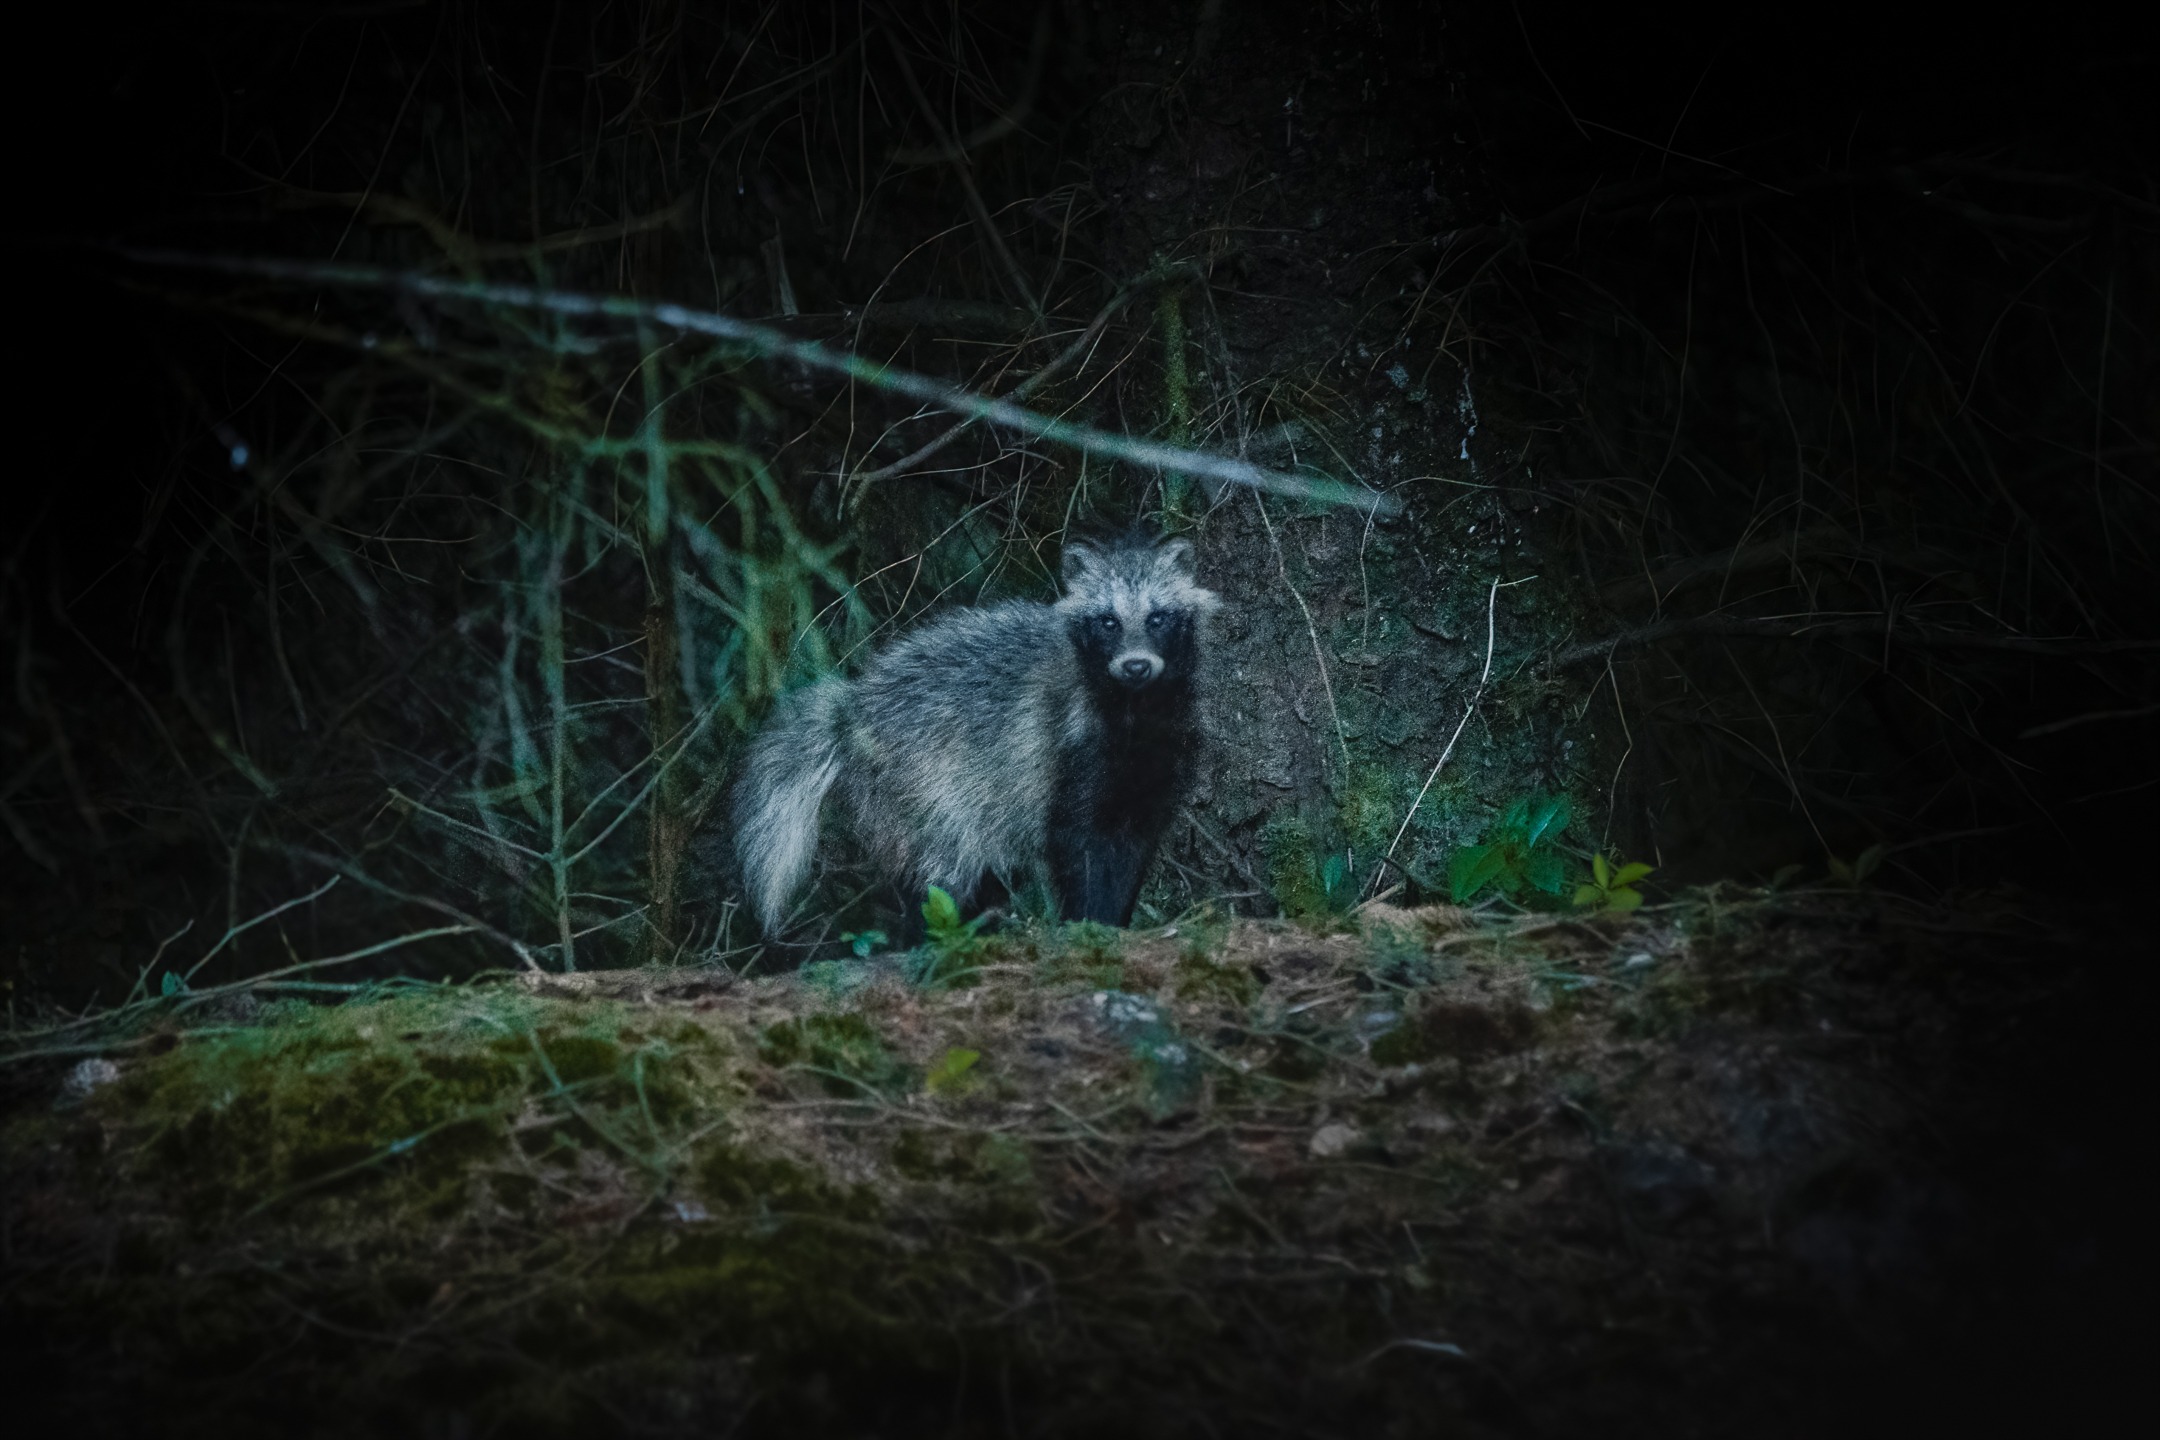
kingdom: Animalia
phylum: Chordata
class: Mammalia
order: Carnivora
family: Canidae
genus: Nyctereutes
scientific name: Nyctereutes procyonoides
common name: Mårhund
